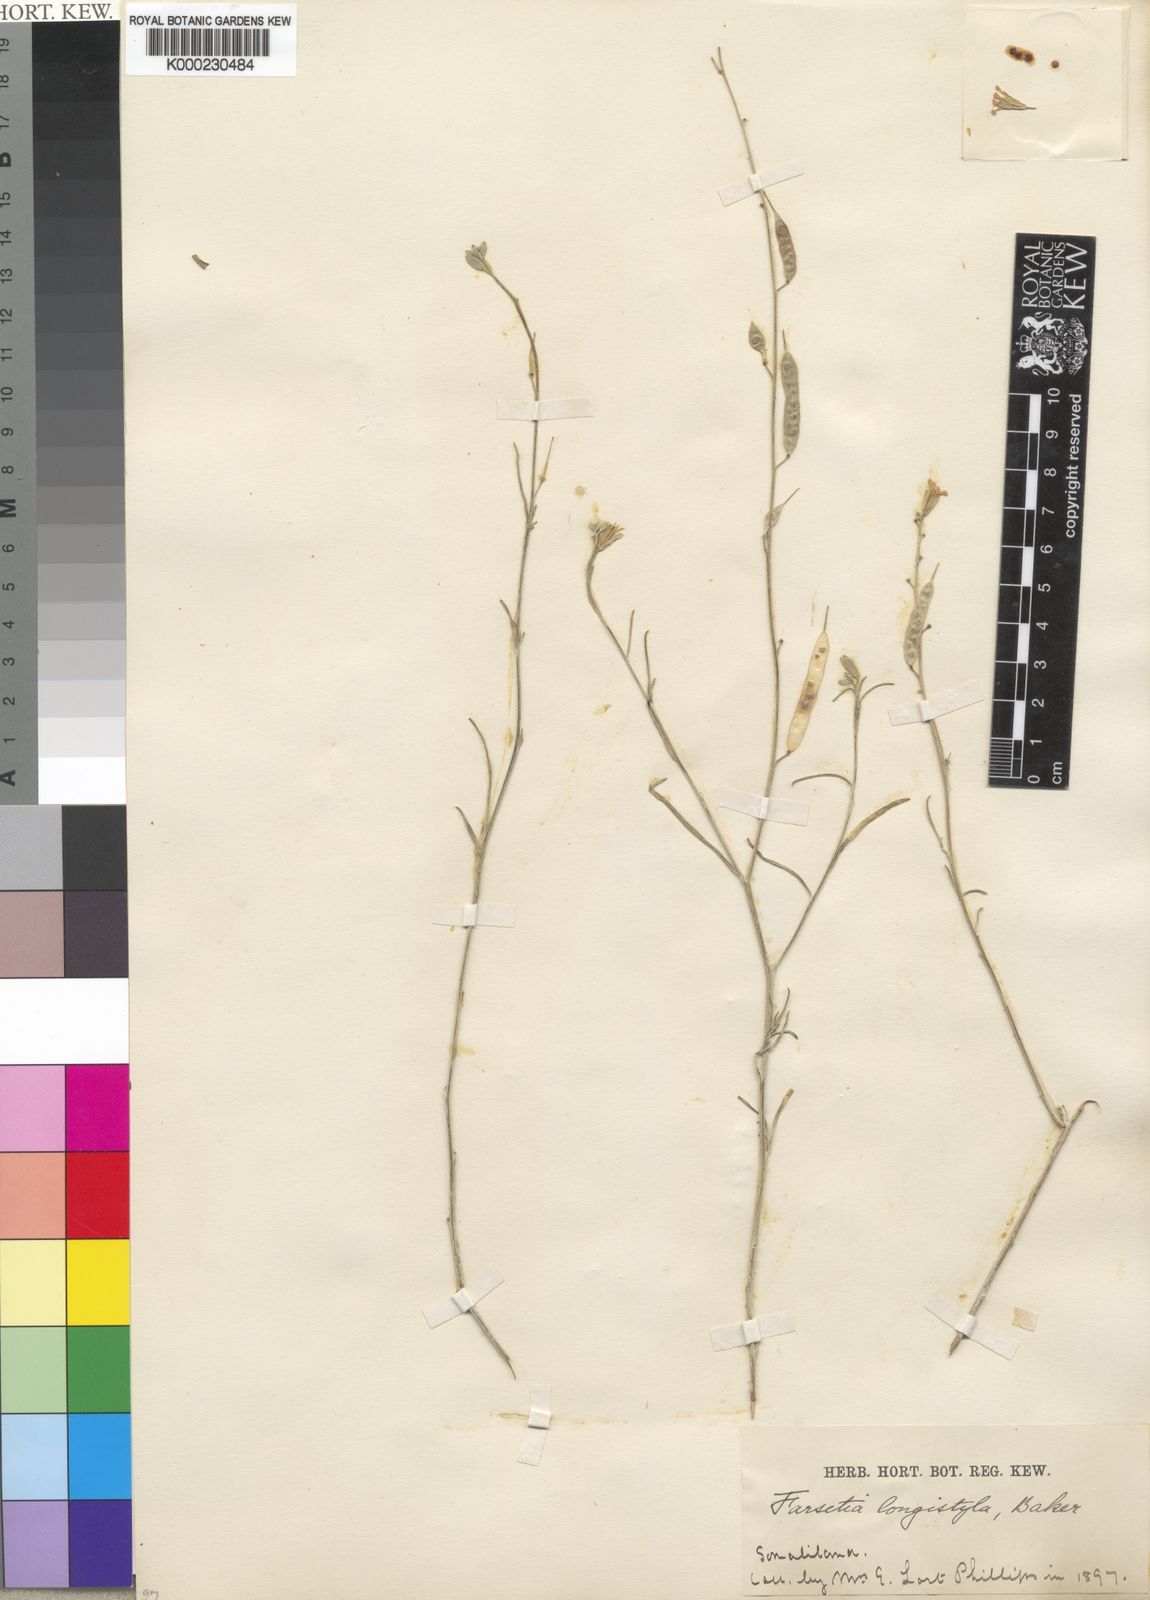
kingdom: Plantae
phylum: Tracheophyta
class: Magnoliopsida
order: Brassicales
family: Brassicaceae
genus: Farsetia
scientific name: Farsetia longistyla
